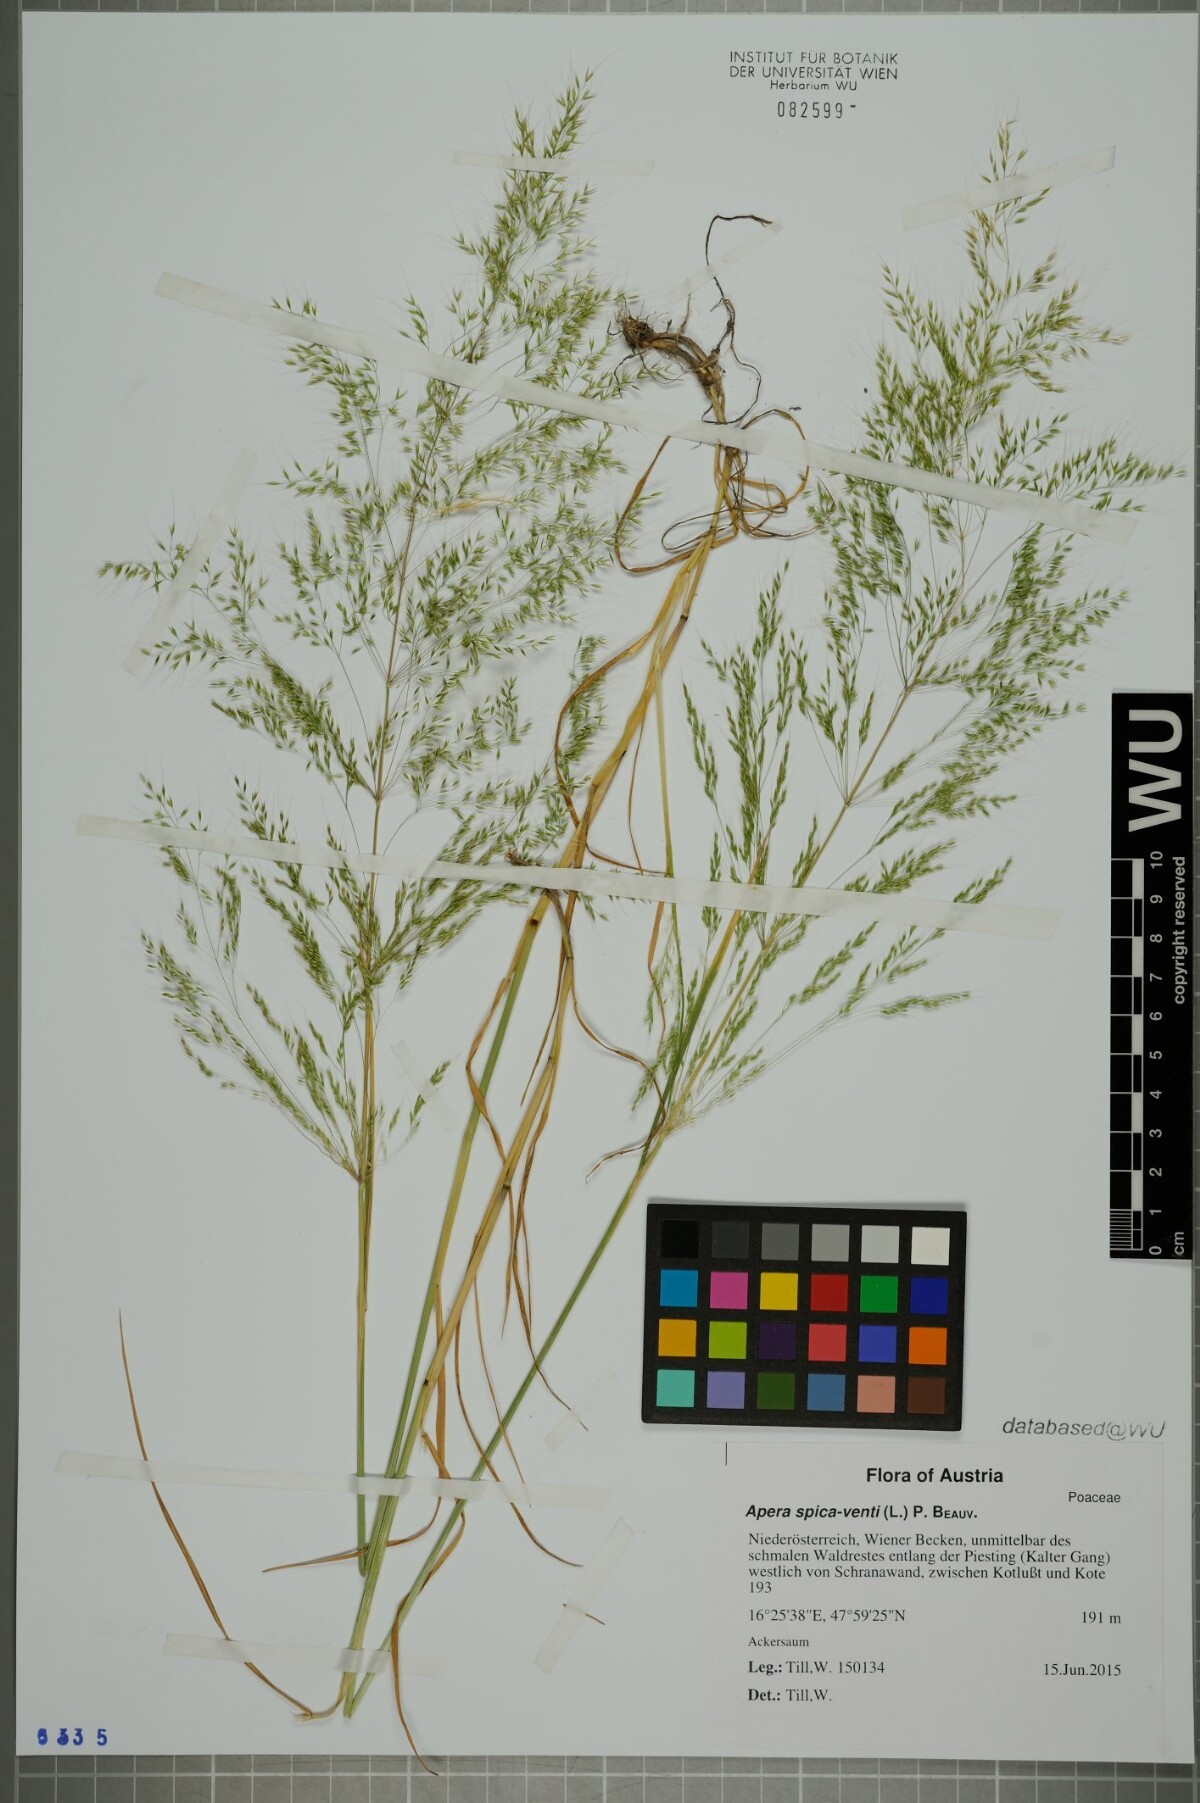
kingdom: Plantae
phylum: Tracheophyta
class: Liliopsida
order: Poales
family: Poaceae
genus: Apera
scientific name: Apera spica-venti
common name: Loose silky-bent
